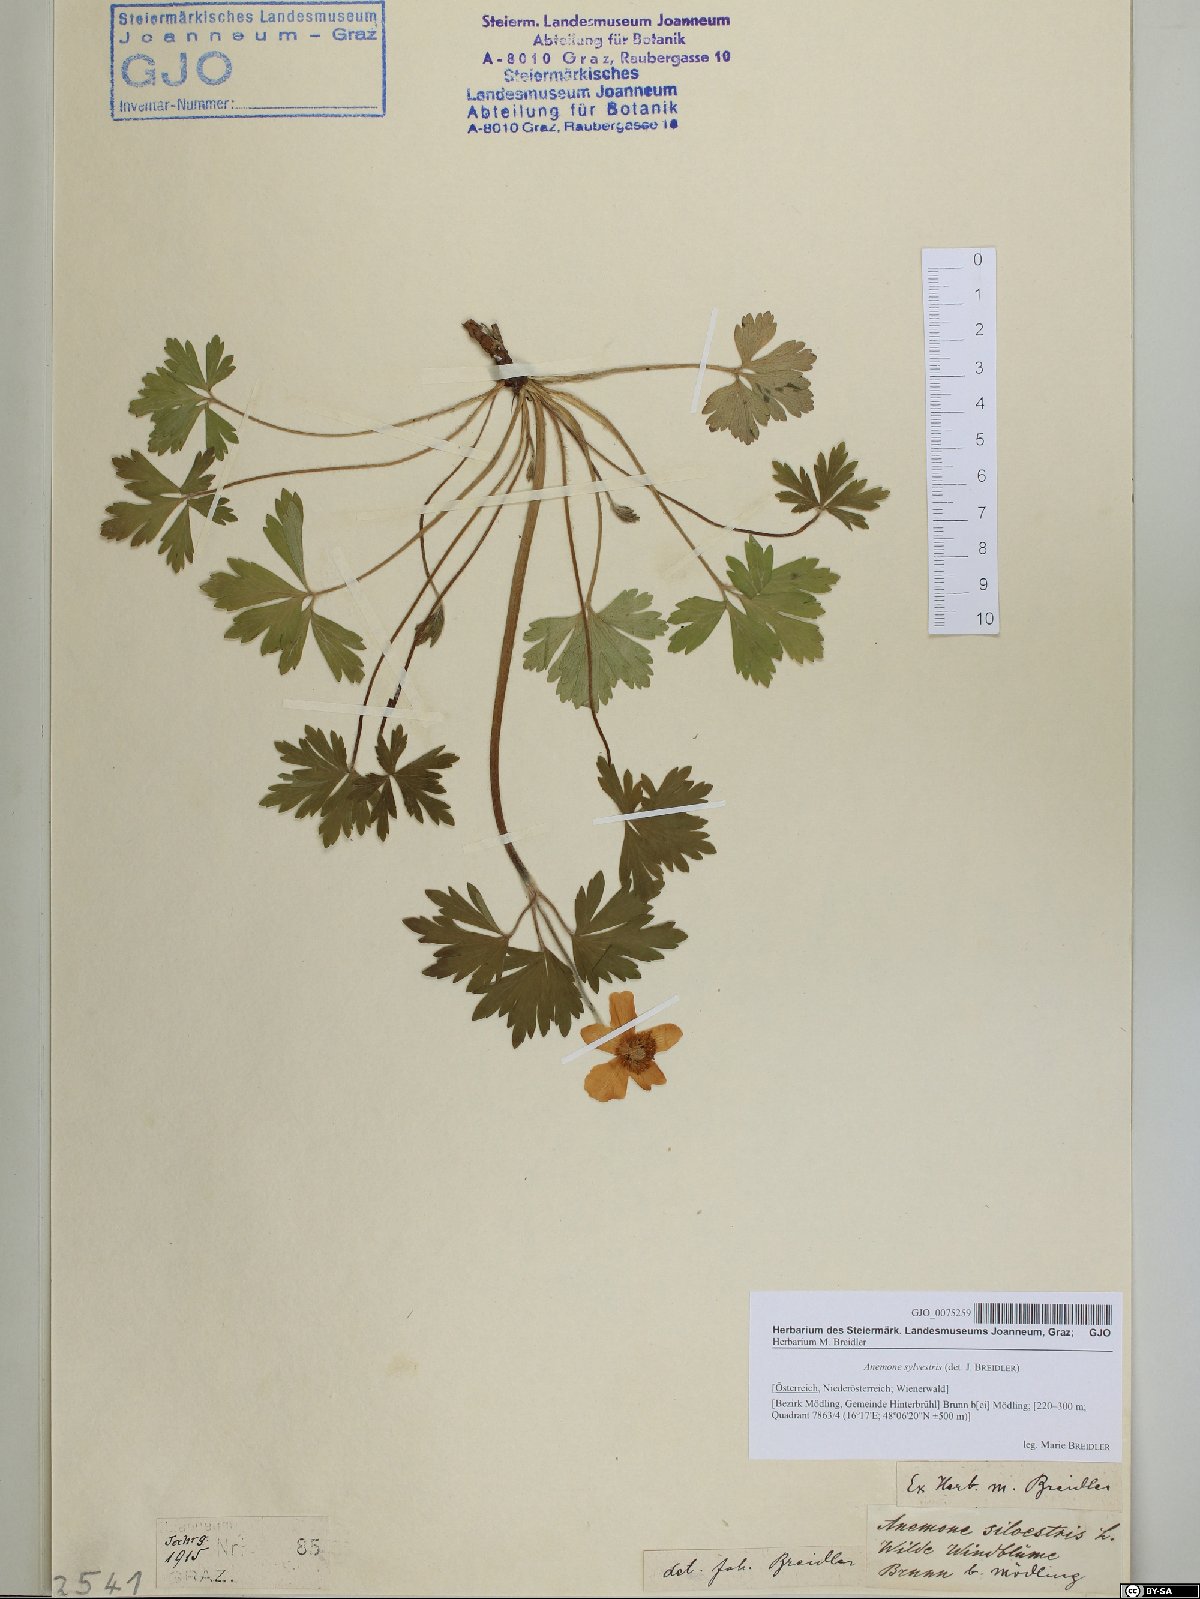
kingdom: Plantae
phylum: Tracheophyta
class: Magnoliopsida
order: Ranunculales
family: Ranunculaceae
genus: Anemone
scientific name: Anemone sylvestris
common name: Snowdrop anemone
